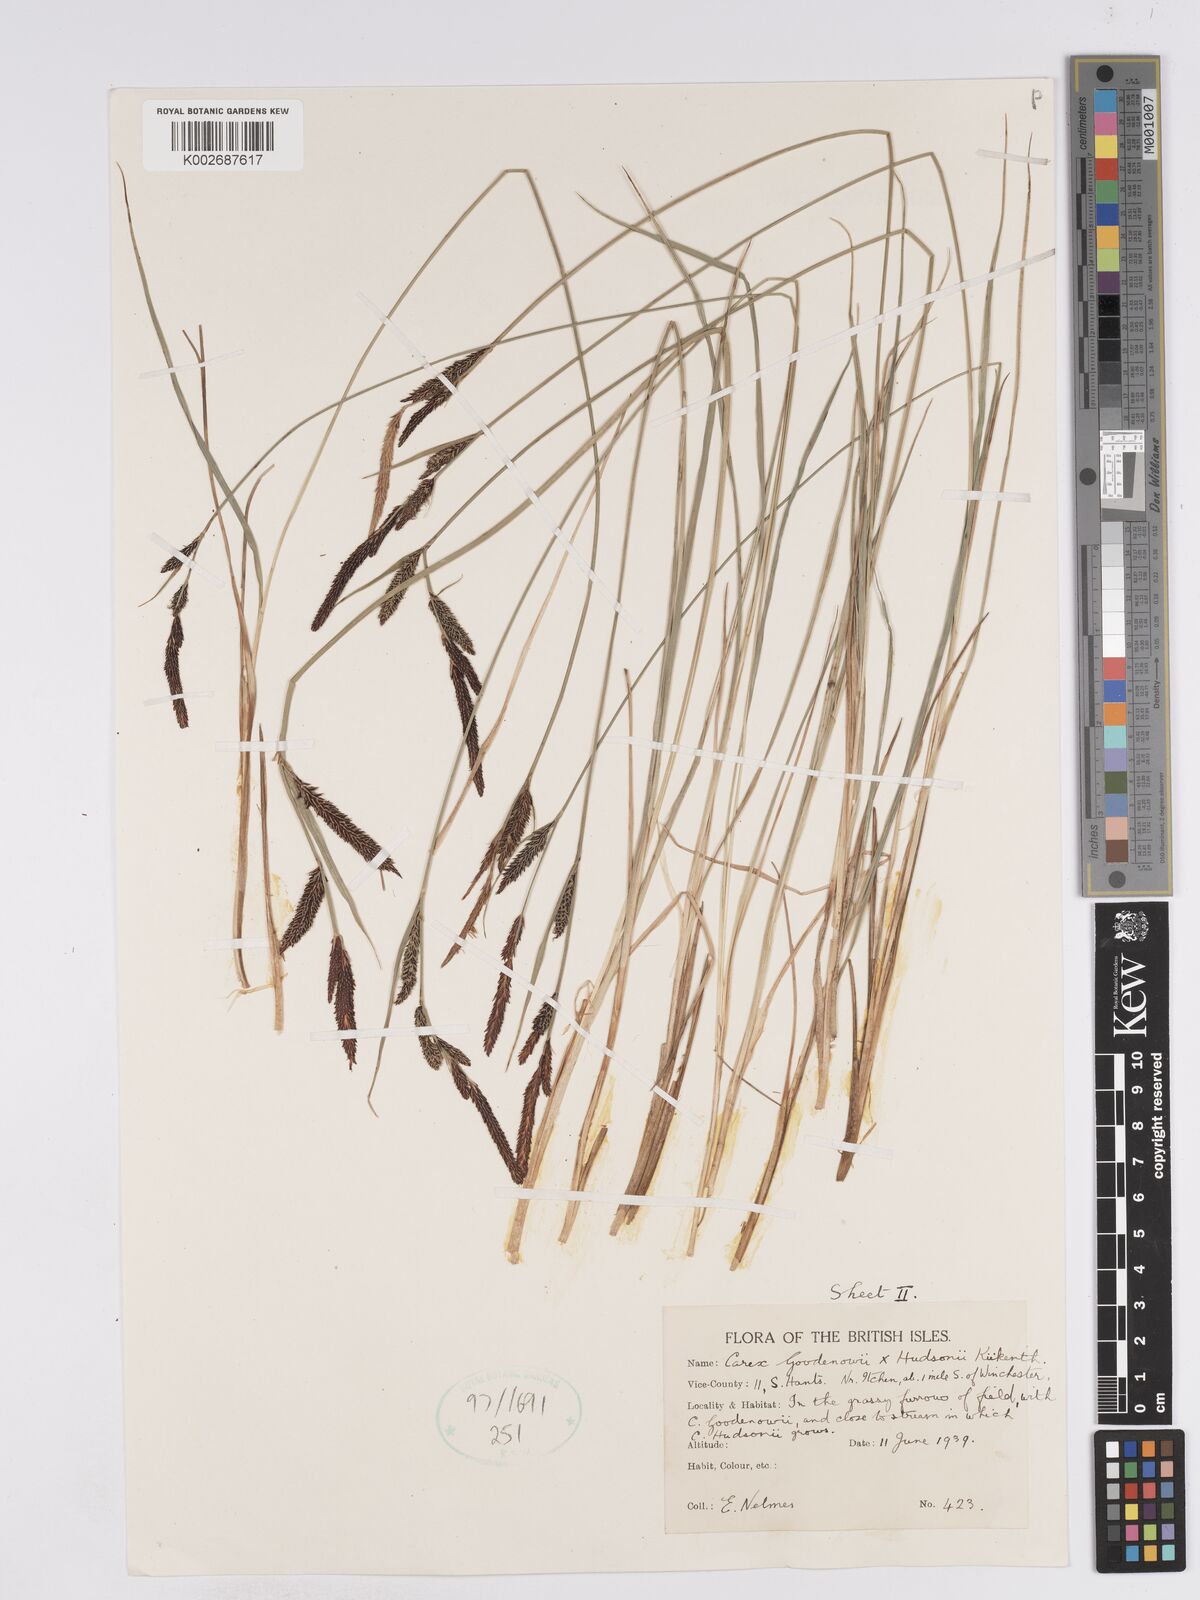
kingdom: Plantae
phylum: Tracheophyta
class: Liliopsida
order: Poales
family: Cyperaceae
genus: Carex
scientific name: Carex elata
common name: Tufted sedge
